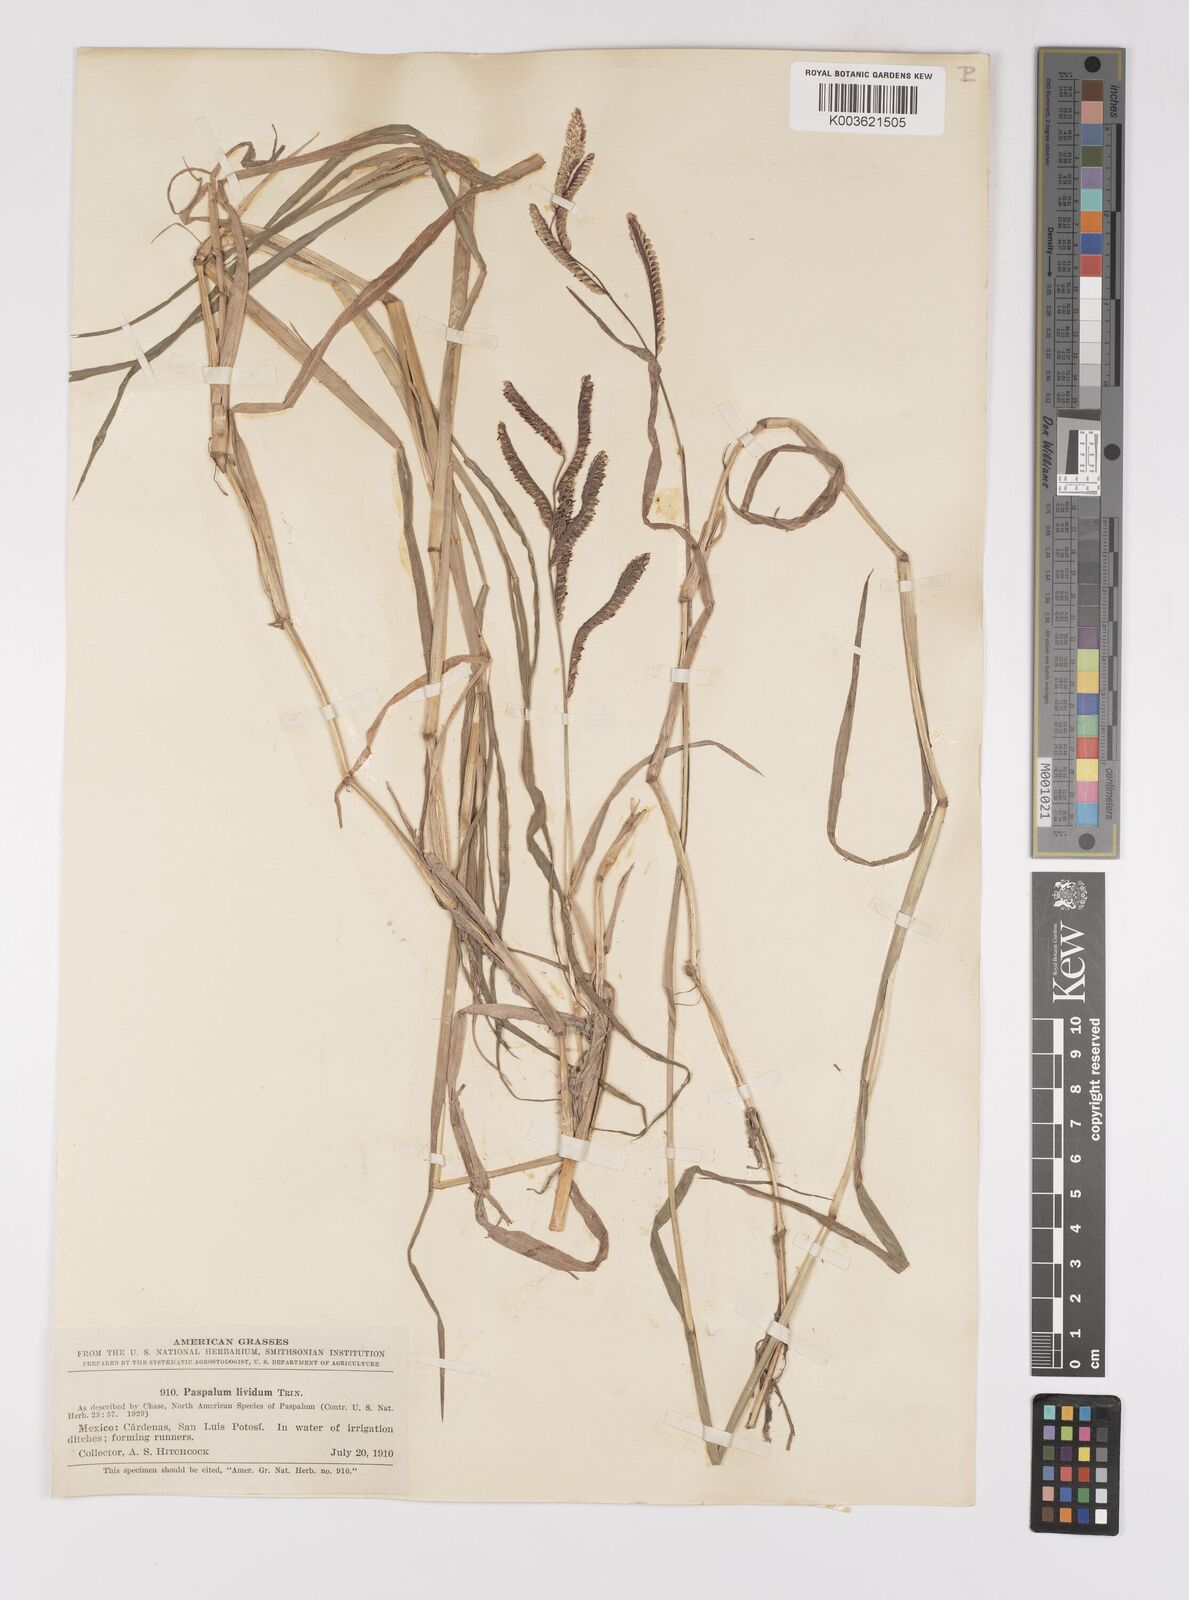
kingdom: Plantae
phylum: Tracheophyta
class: Liliopsida
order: Poales
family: Poaceae
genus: Paspalum
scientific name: Paspalum denticulatum
